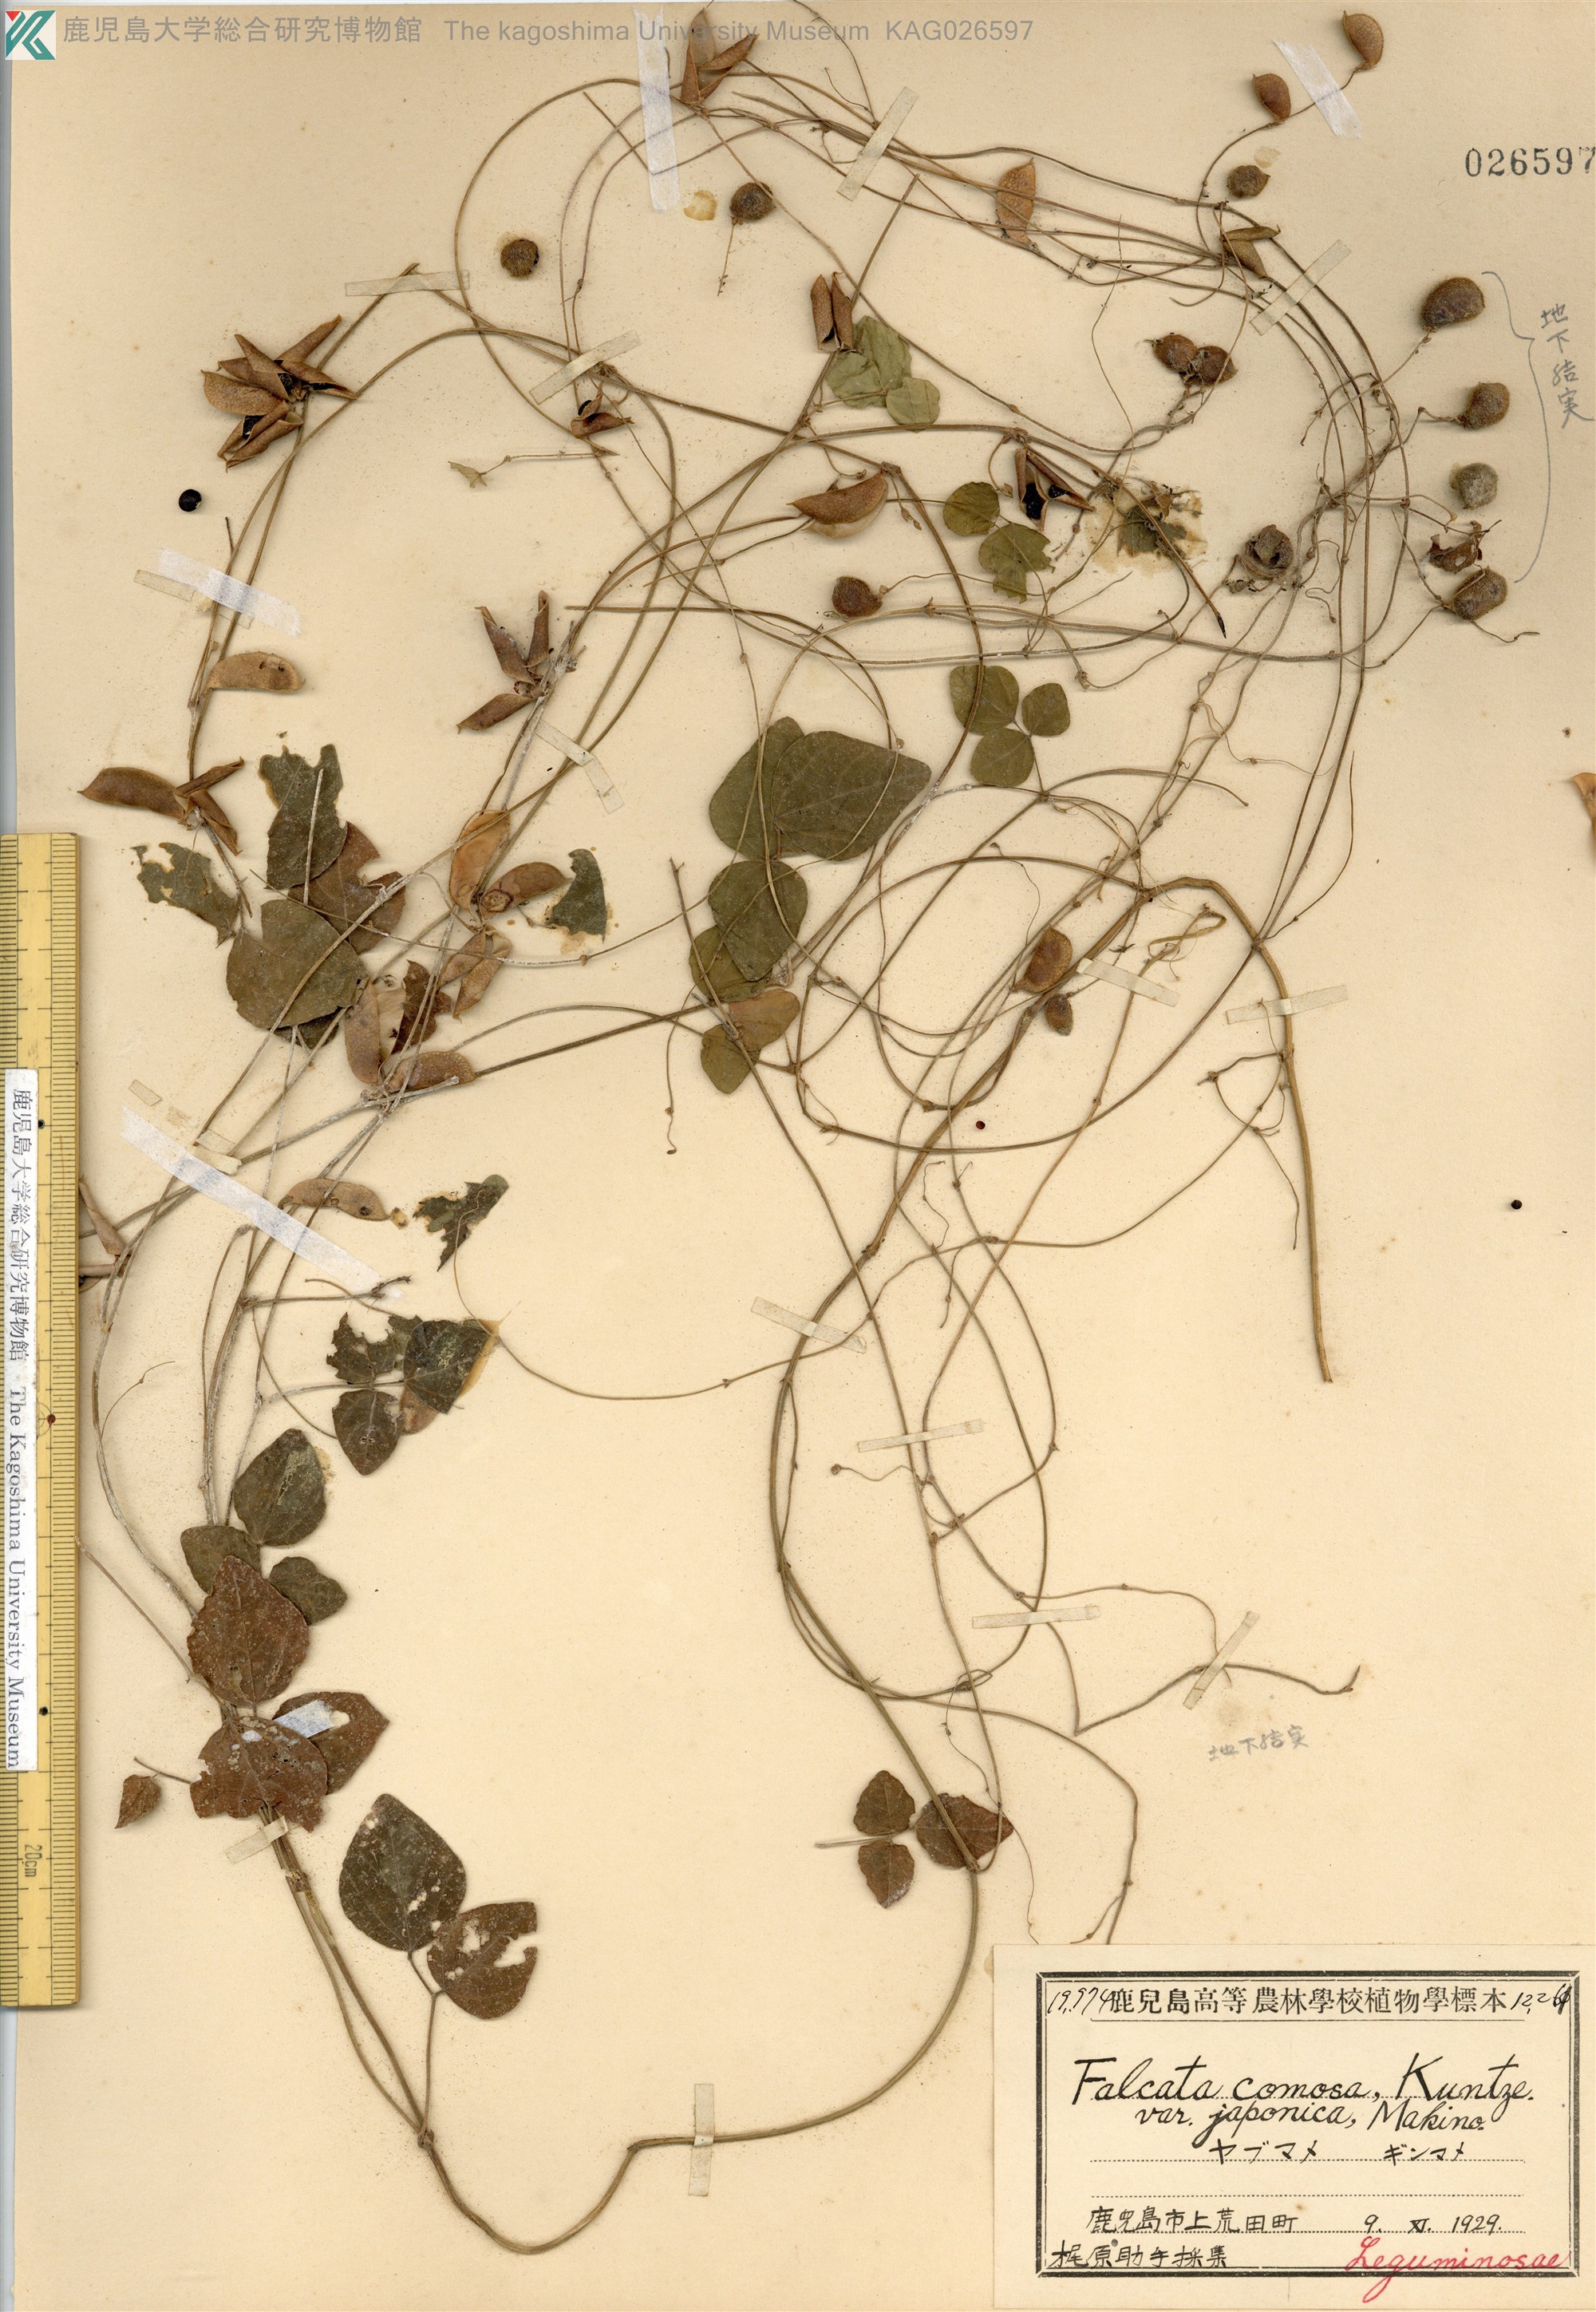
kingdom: Plantae
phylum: Tracheophyta
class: Magnoliopsida
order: Fabales
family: Fabaceae
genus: Amphicarpaea
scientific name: Amphicarpaea edgeworthii
